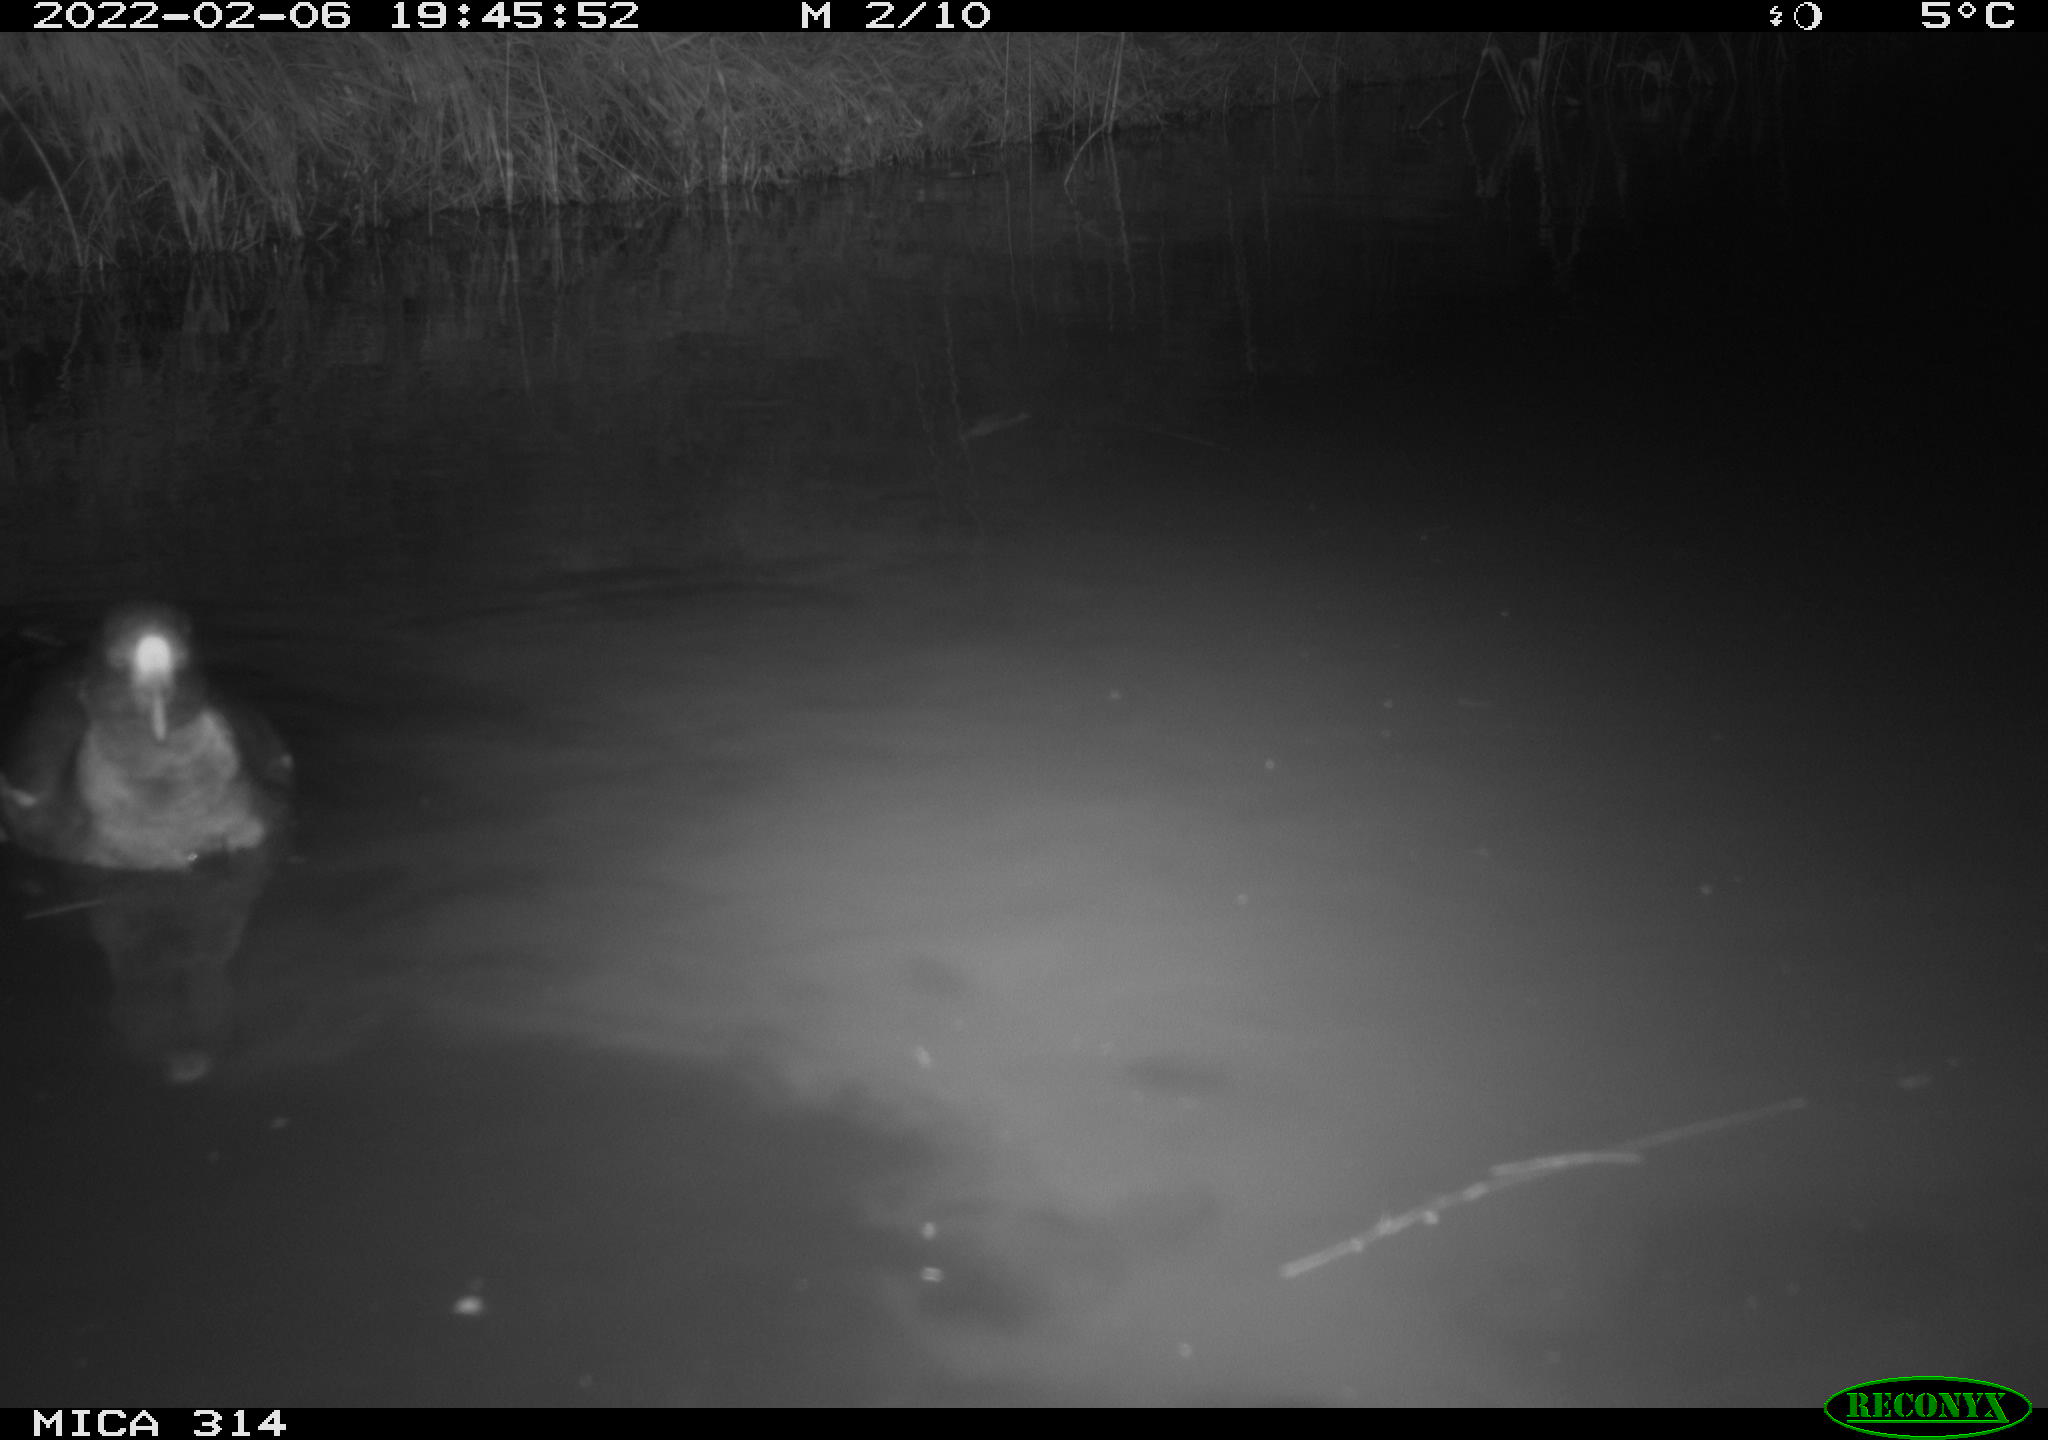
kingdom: Animalia
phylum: Chordata
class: Aves
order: Gruiformes
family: Rallidae
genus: Gallinula
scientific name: Gallinula chloropus
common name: Common moorhen
